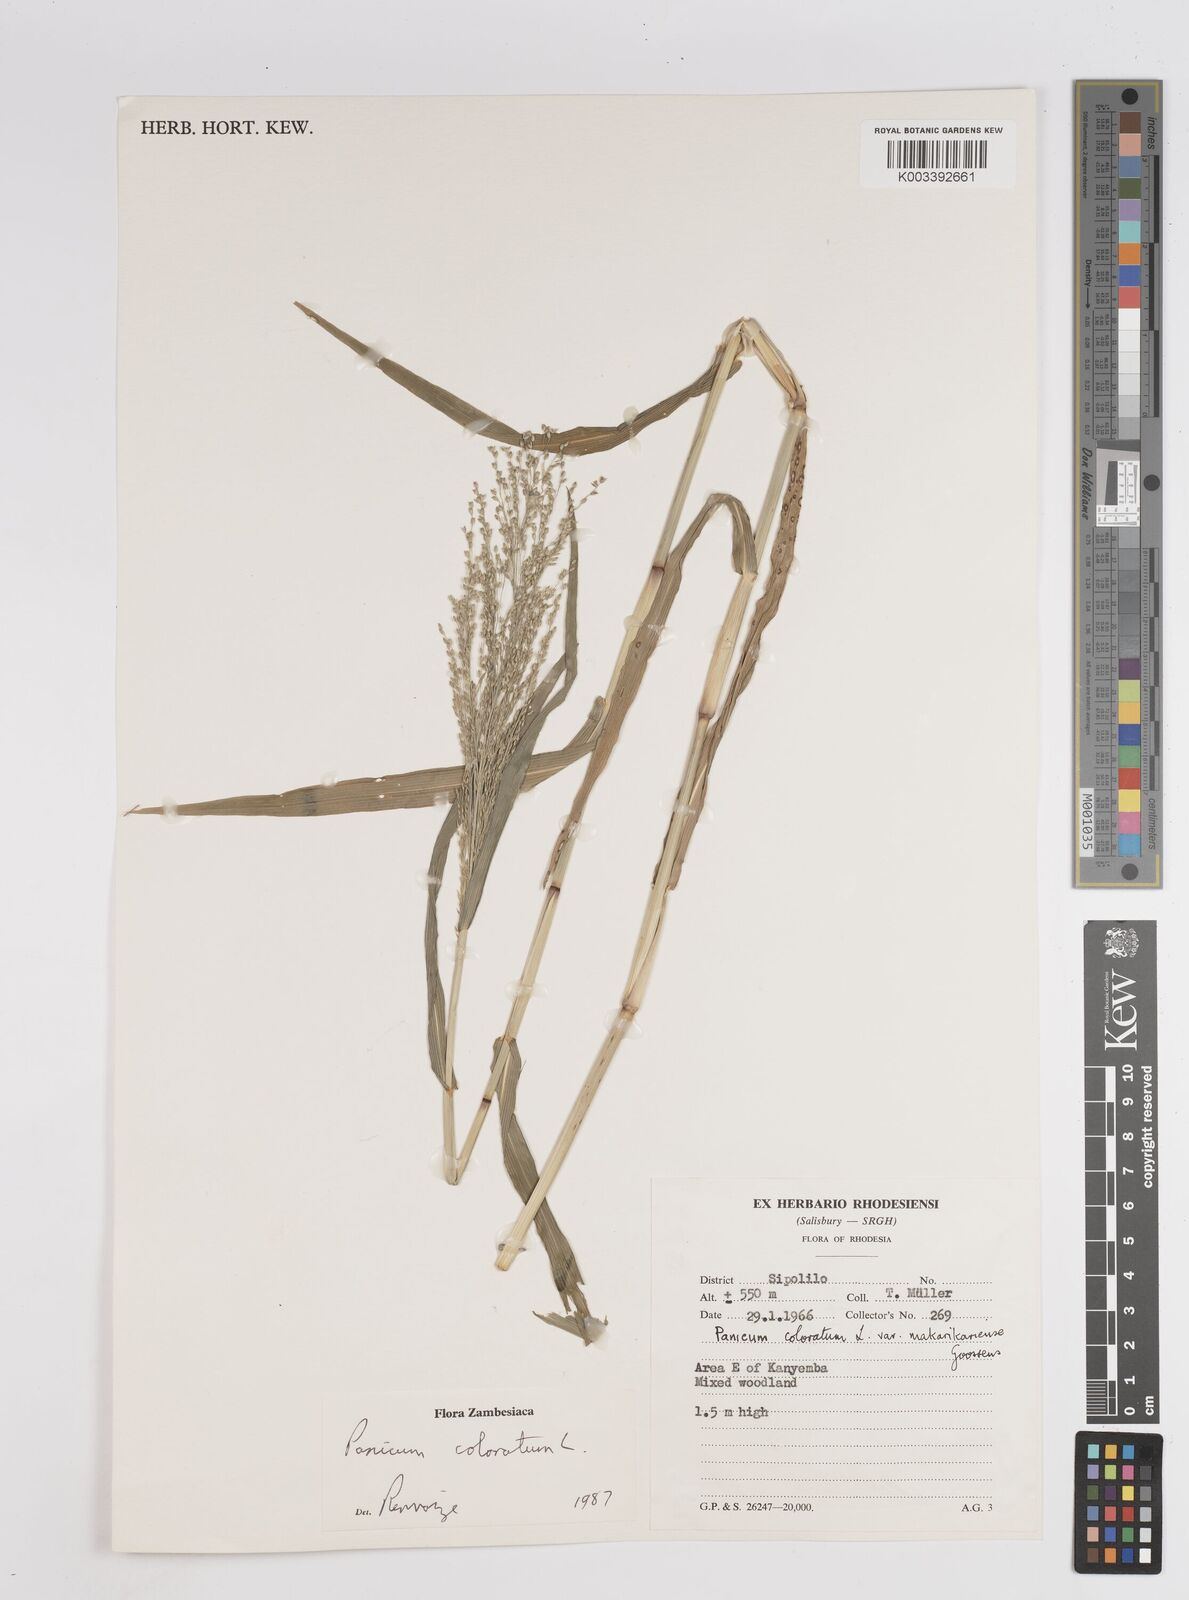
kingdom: Plantae
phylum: Tracheophyta
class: Liliopsida
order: Poales
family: Poaceae
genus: Panicum
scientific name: Panicum coloratum
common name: Kleingrass
